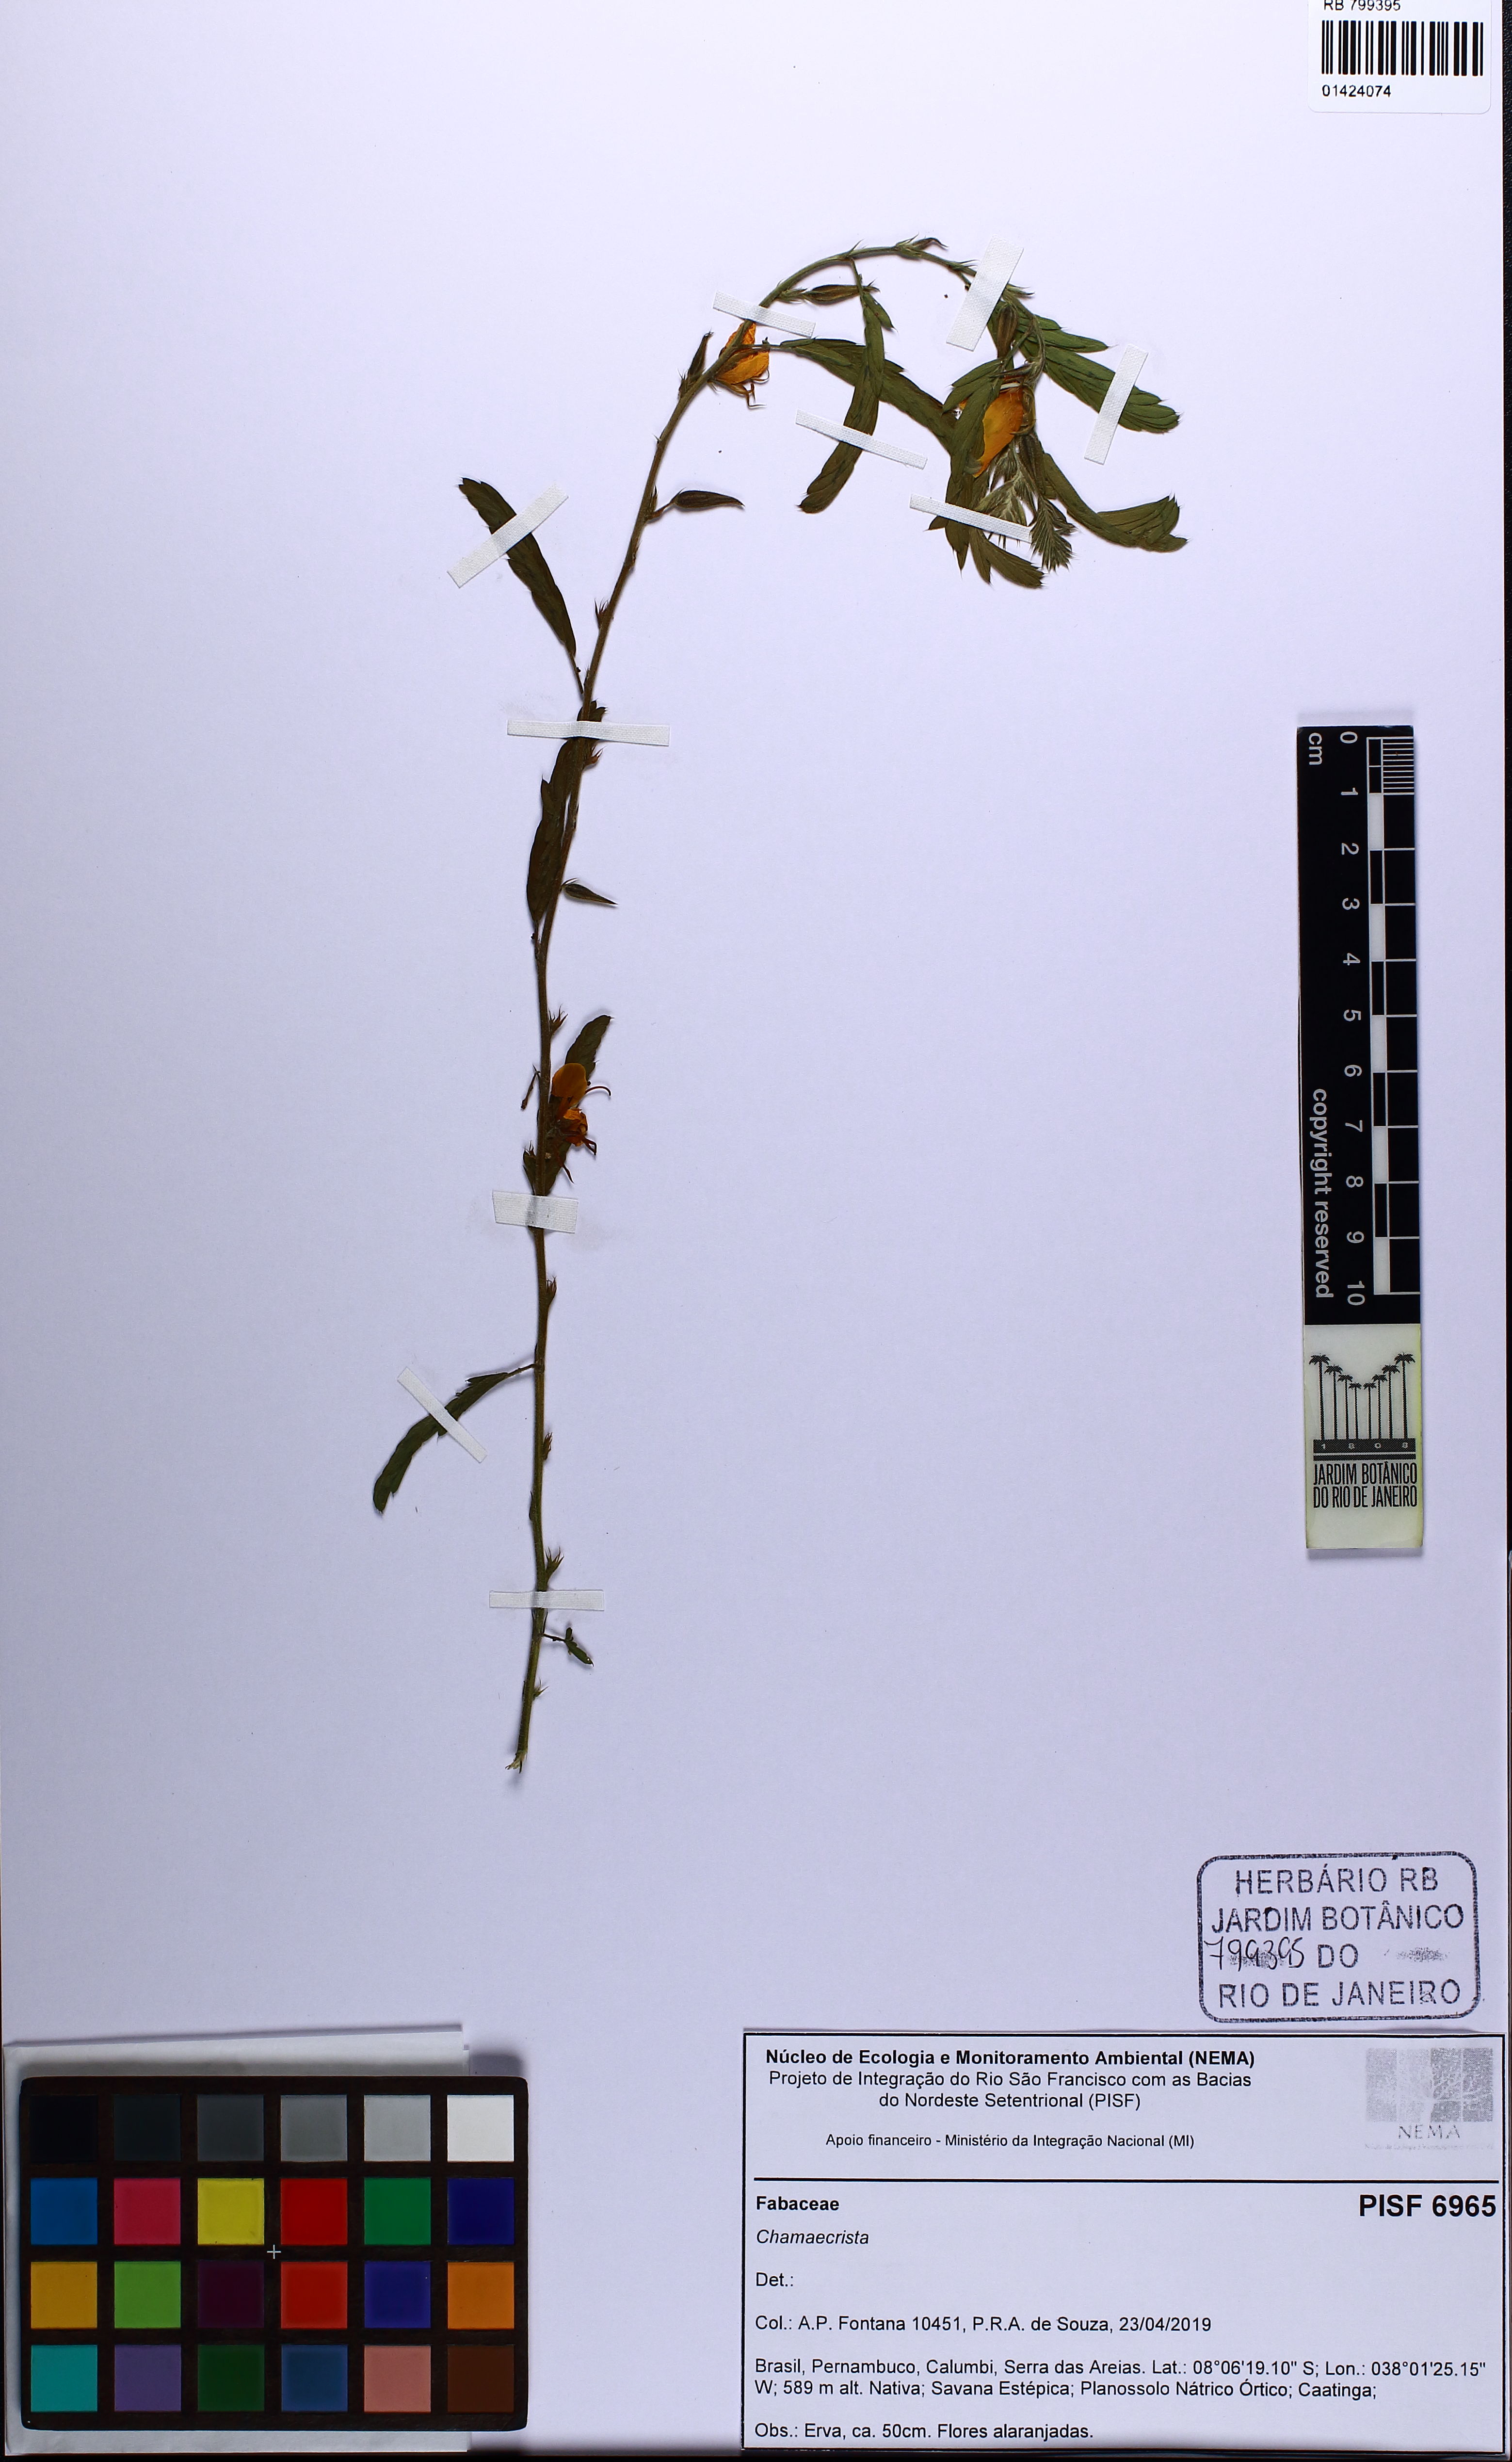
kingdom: Plantae
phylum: Tracheophyta
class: Magnoliopsida
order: Fabales
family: Fabaceae
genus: Chamaecrista
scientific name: Chamaecrista
